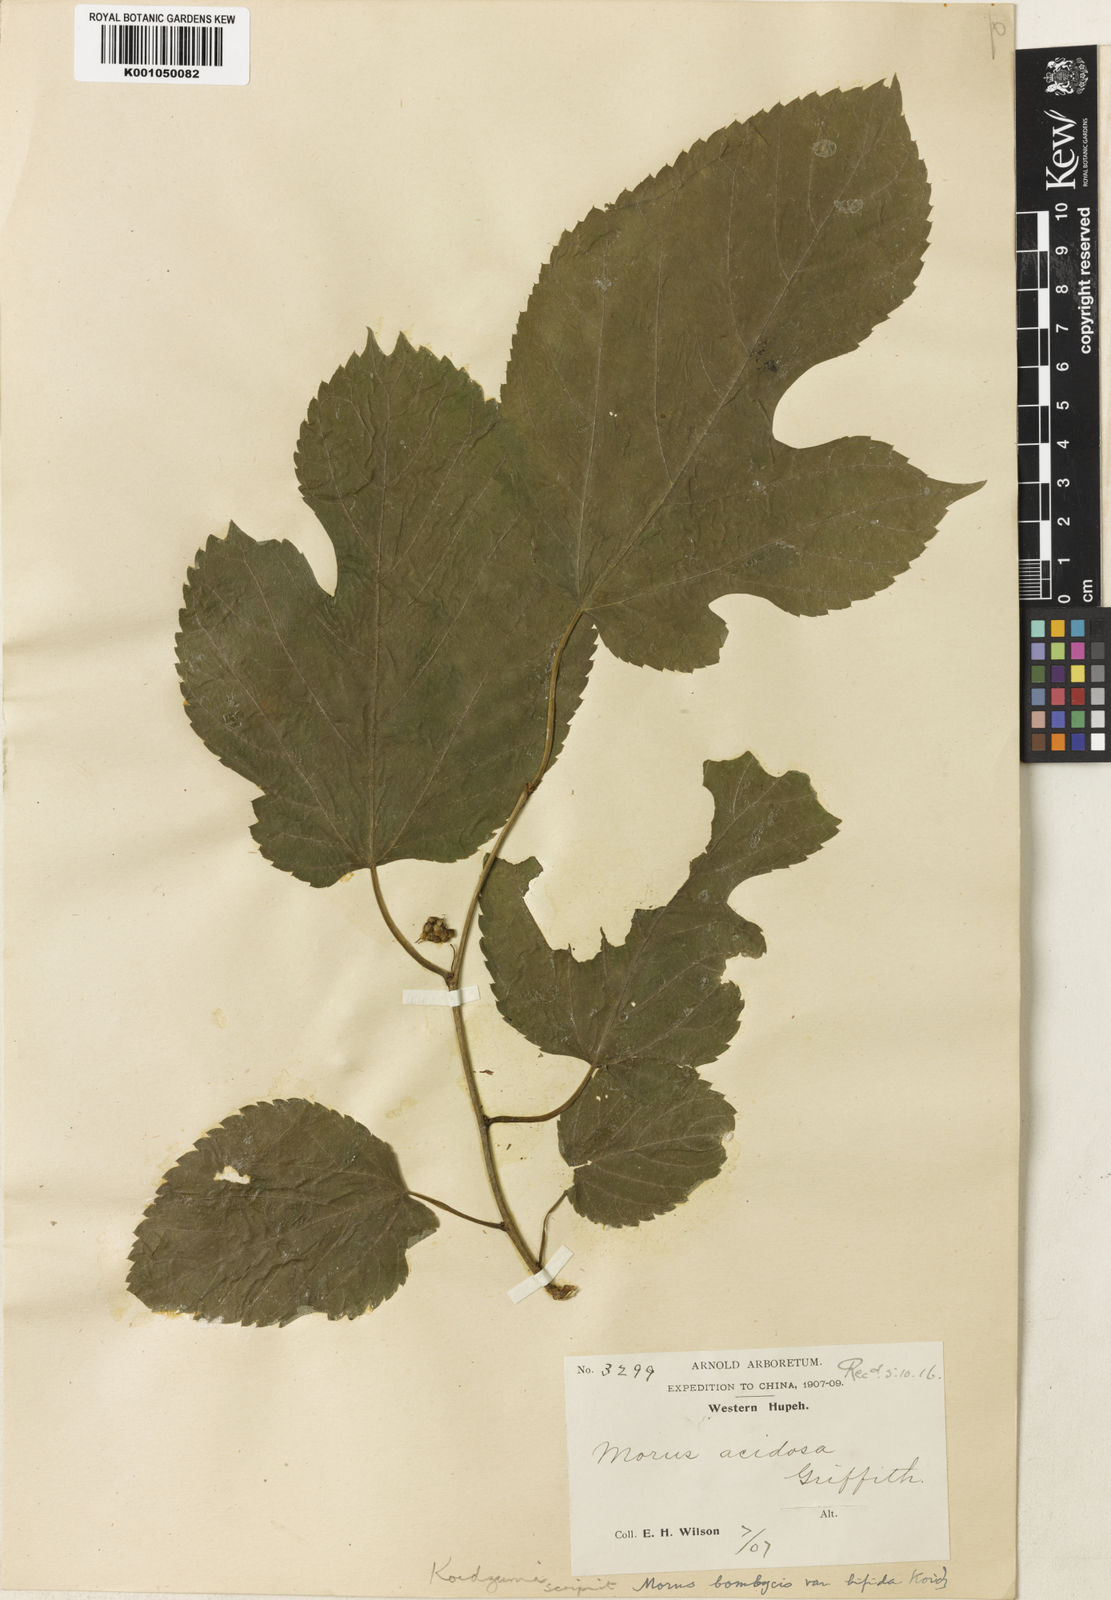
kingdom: Plantae
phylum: Tracheophyta
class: Magnoliopsida
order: Rosales
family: Moraceae
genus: Morus
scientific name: Morus indica
